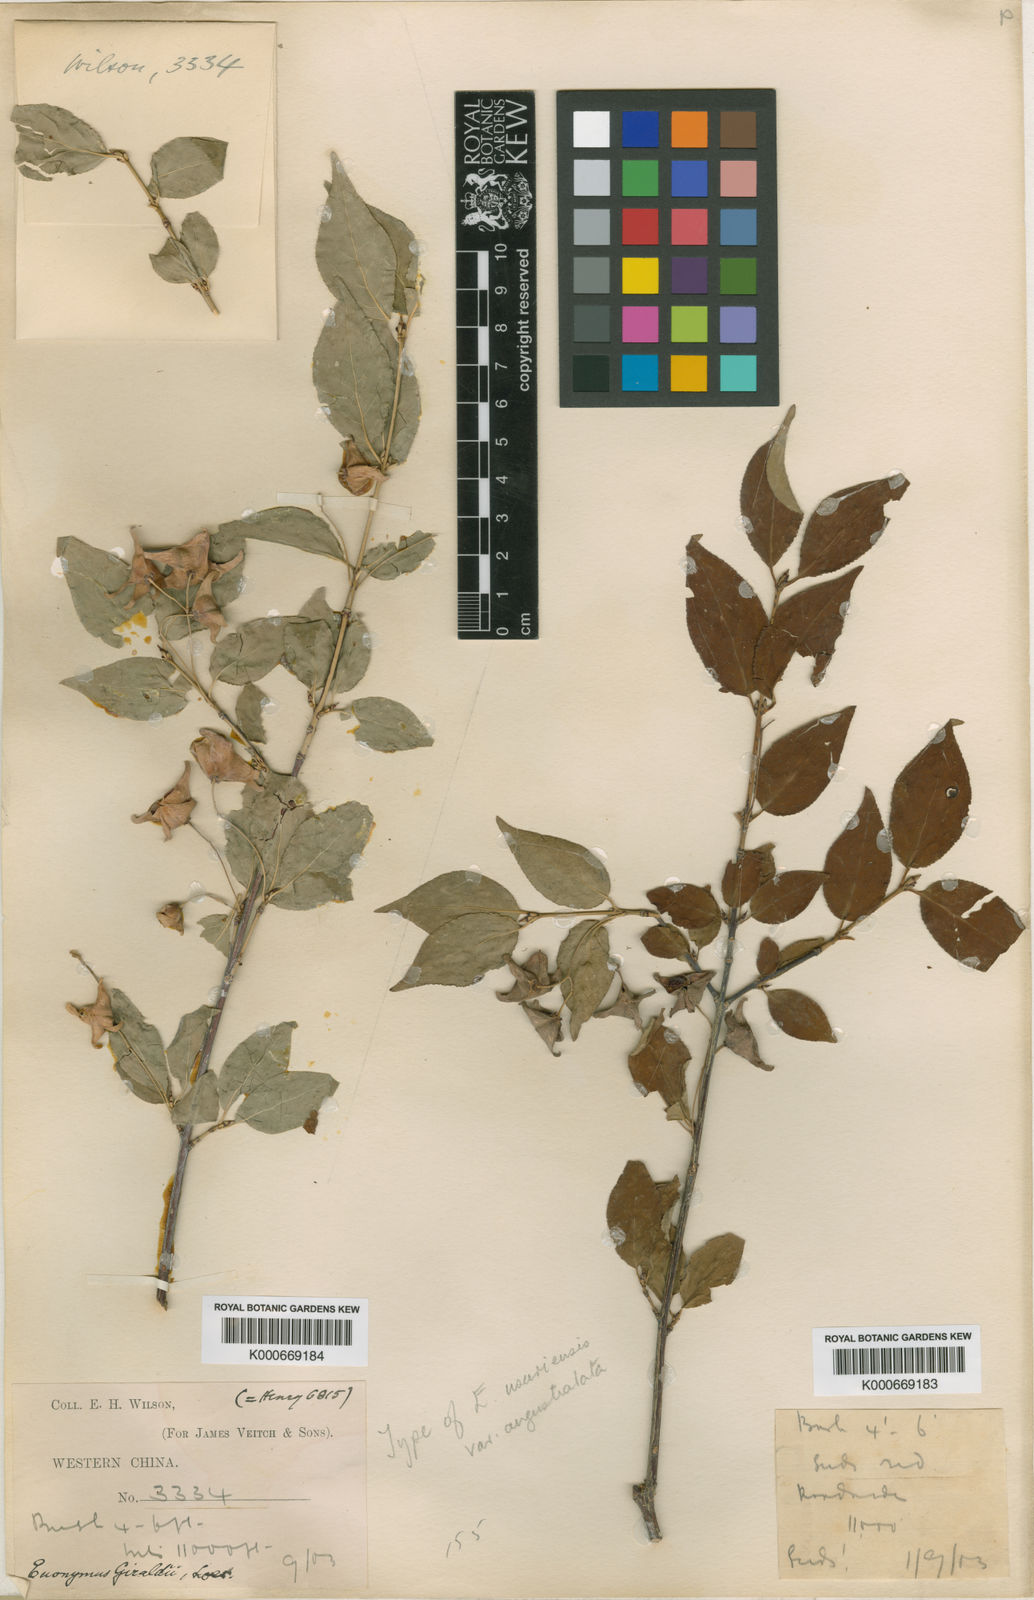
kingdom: Plantae
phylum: Tracheophyta
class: Magnoliopsida
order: Celastrales
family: Celastraceae
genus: Euonymus
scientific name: Euonymus giraldii
